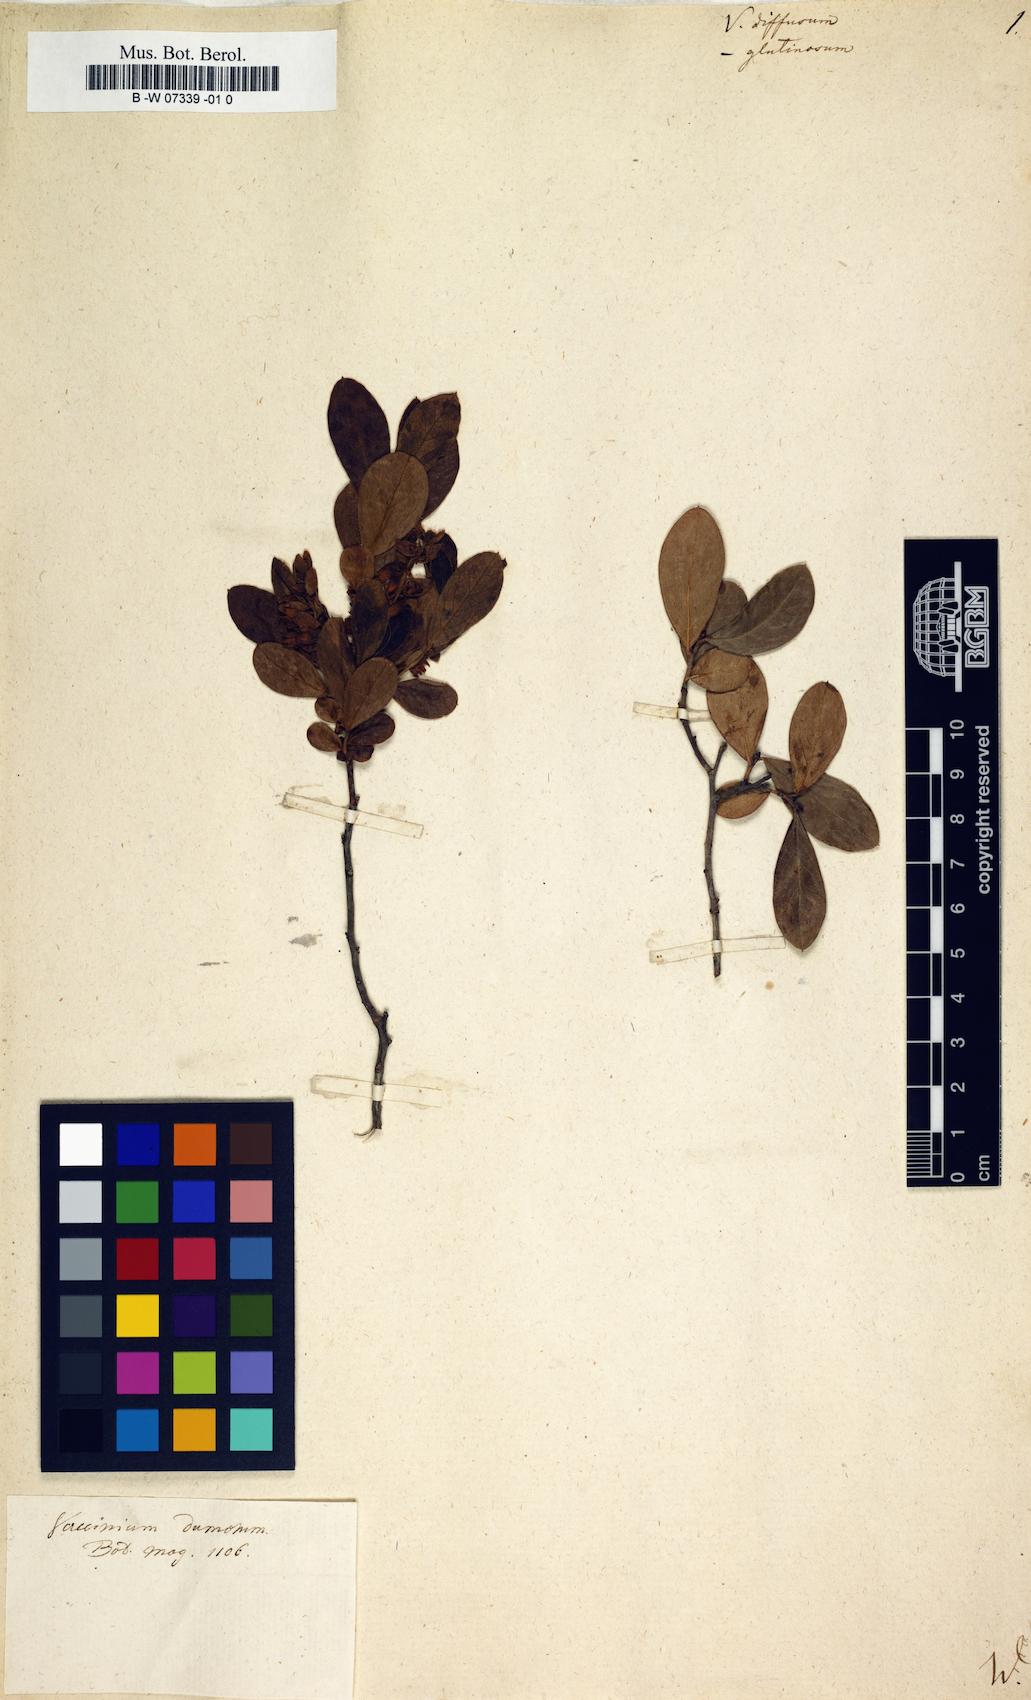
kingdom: Plantae
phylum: Tracheophyta
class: Magnoliopsida
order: Ericales
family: Ericaceae
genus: Vaccinium
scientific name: Vaccinium arboreum
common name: Farkleberry
